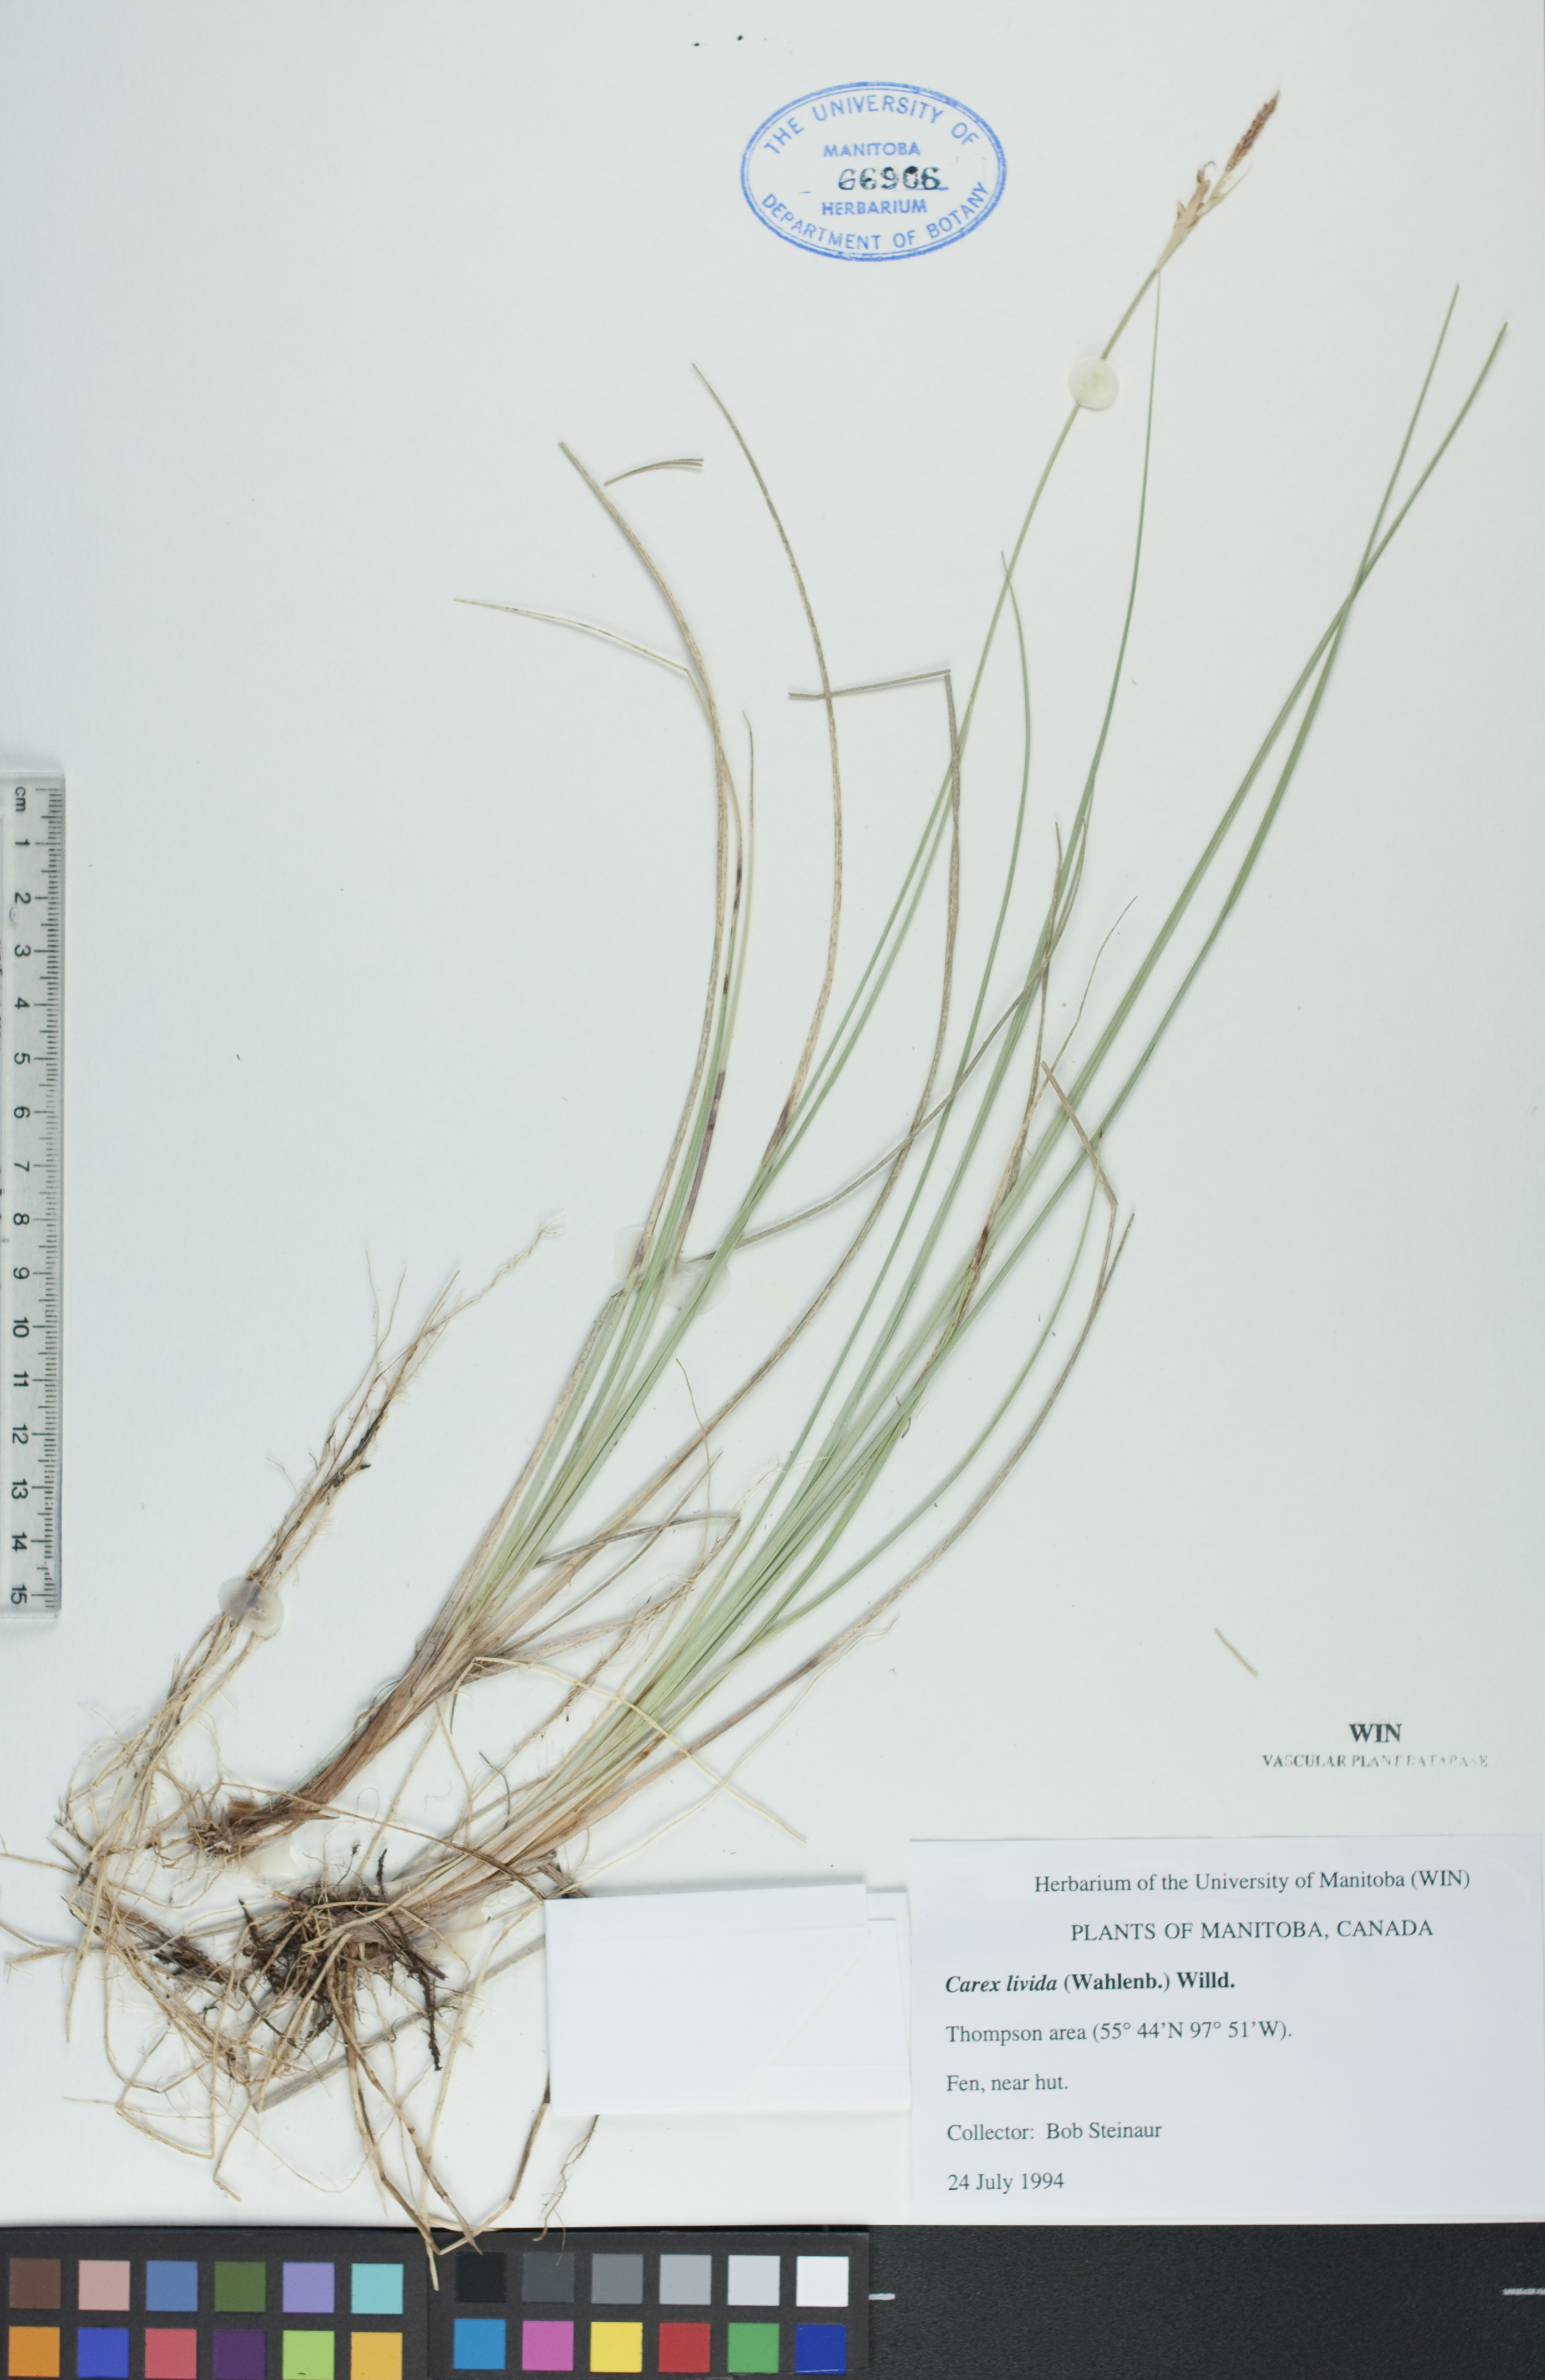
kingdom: Plantae
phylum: Tracheophyta
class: Liliopsida
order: Poales
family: Cyperaceae
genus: Carex
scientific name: Carex livida
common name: Livid sedge
